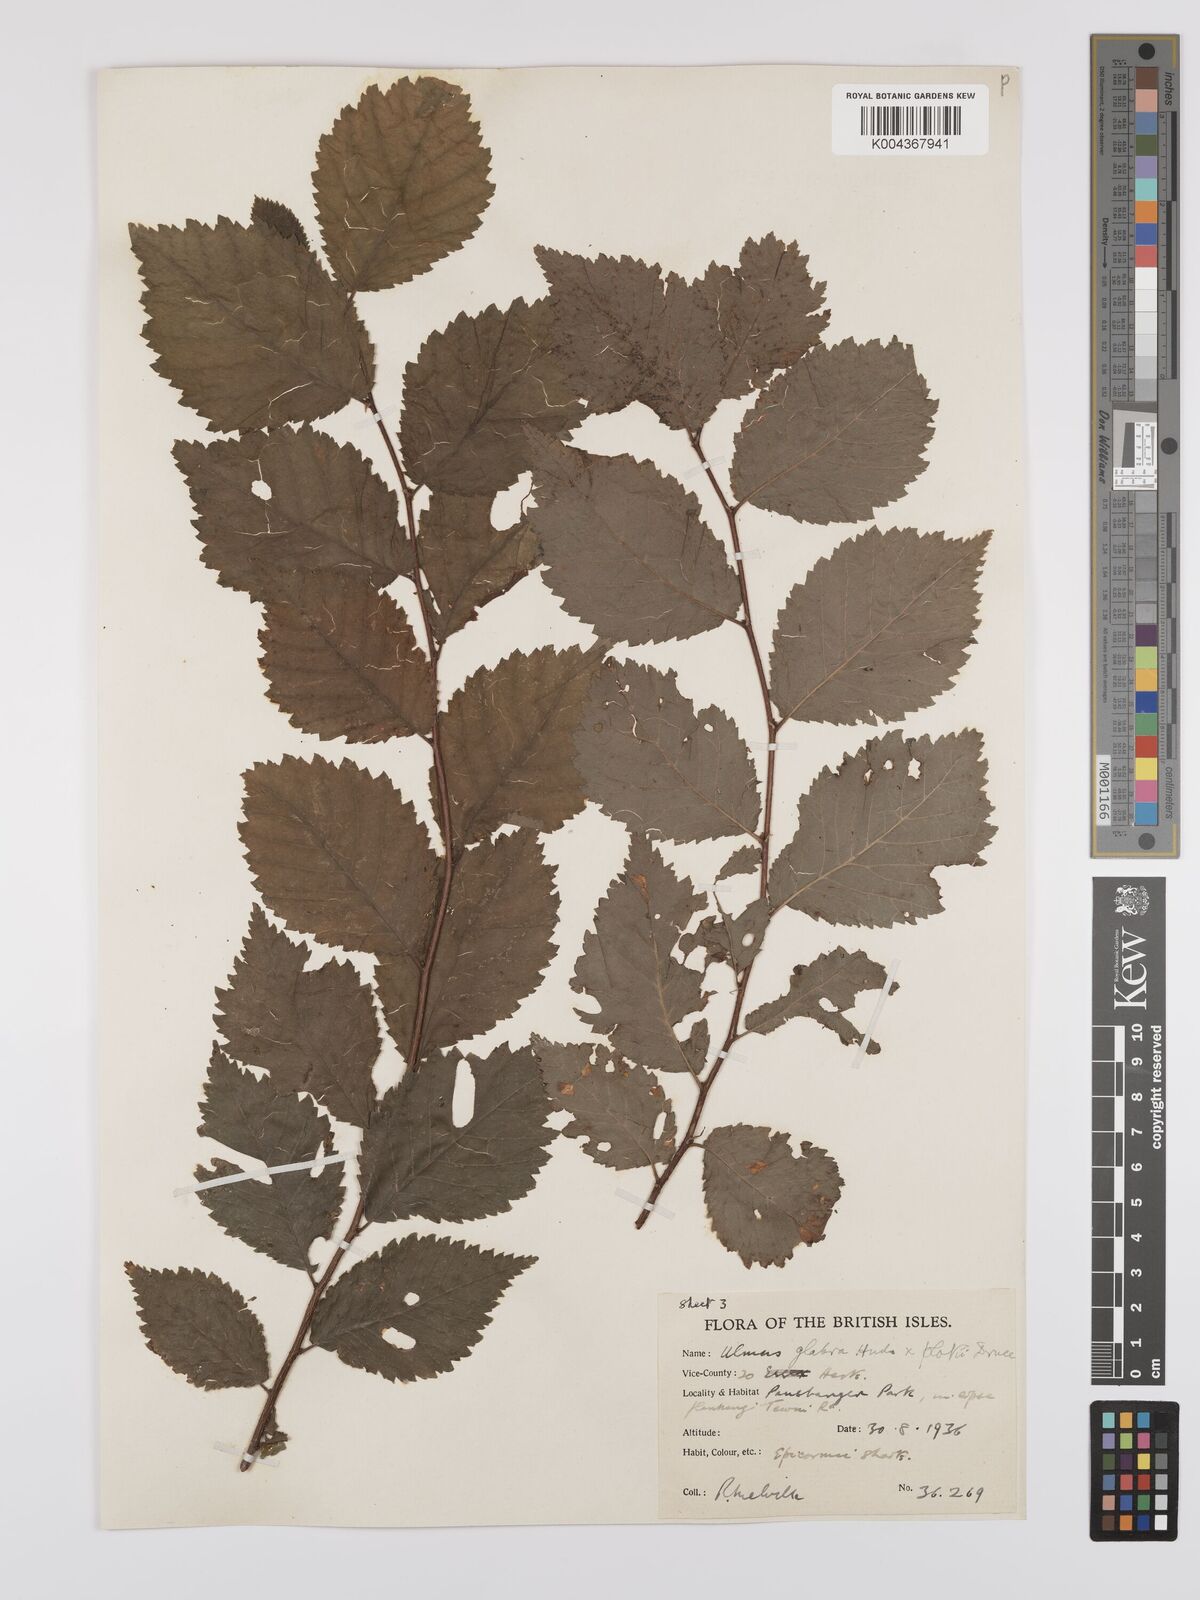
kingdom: Plantae
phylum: Tracheophyta
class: Magnoliopsida
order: Rosales
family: Ulmaceae
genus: Ulmus
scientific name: Ulmus glabra
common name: Wych elm
